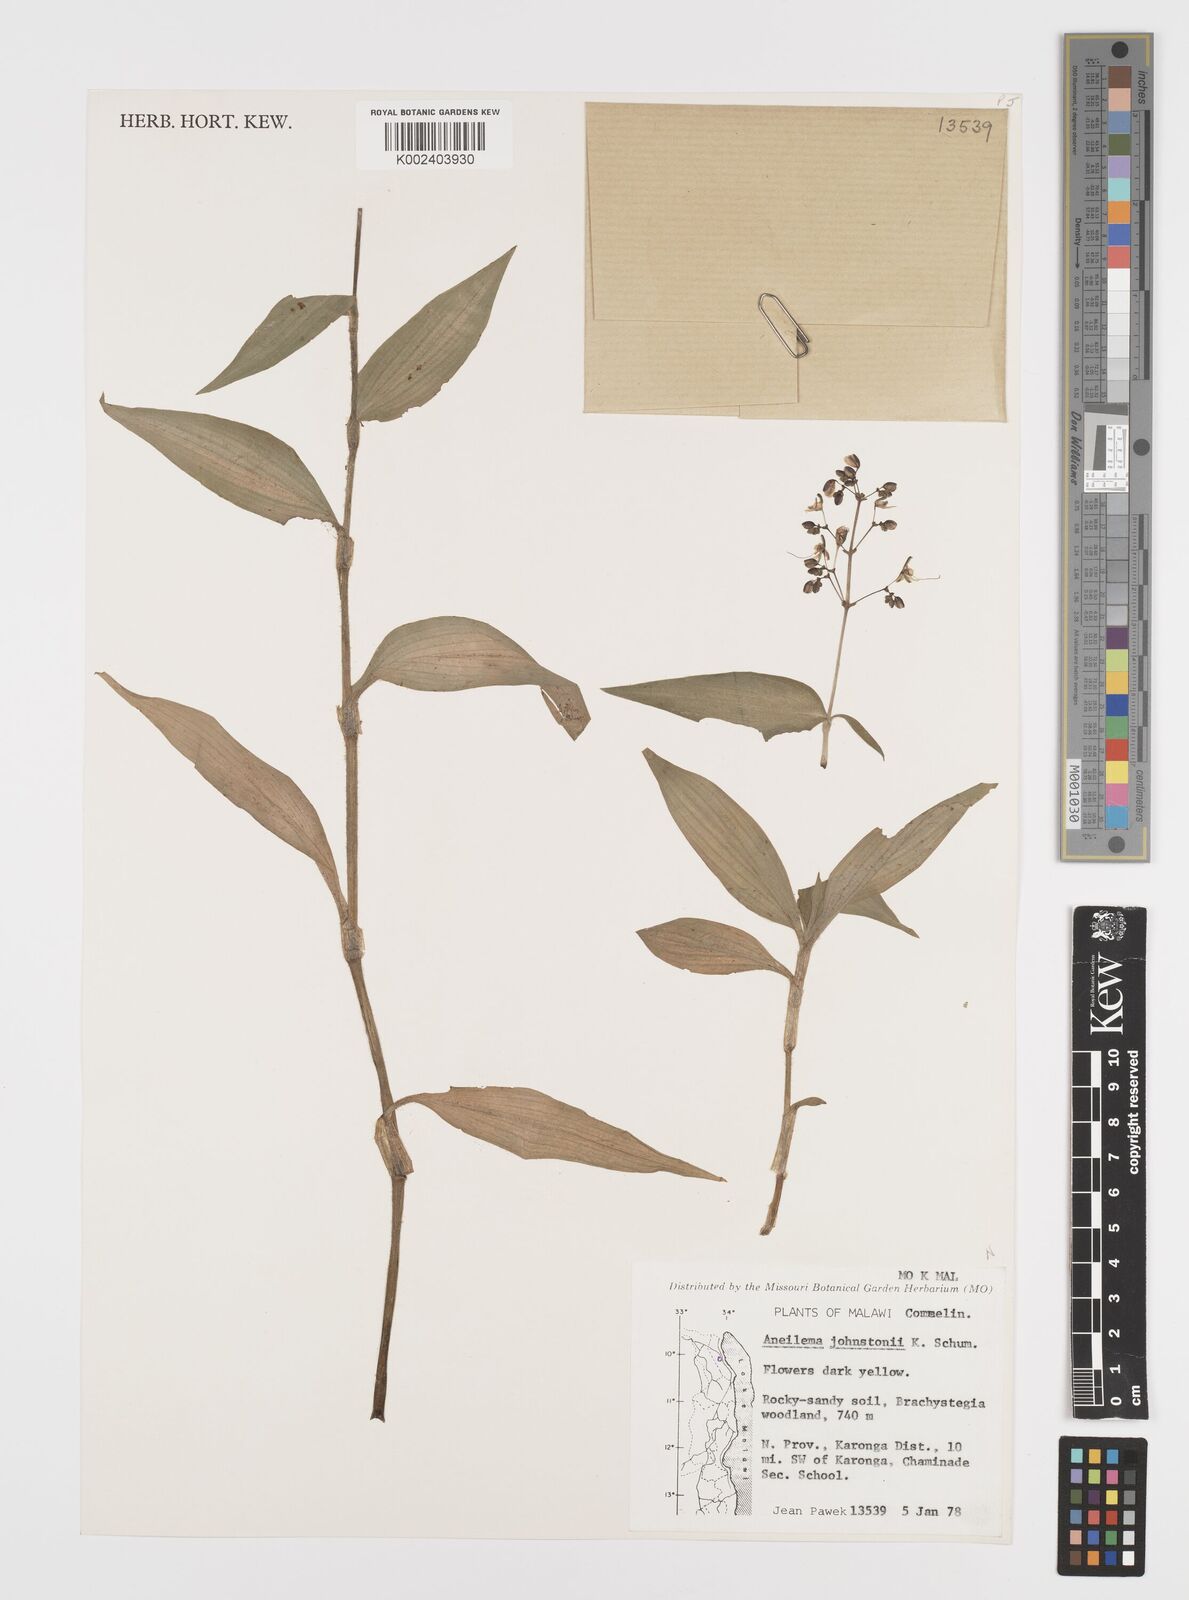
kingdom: Plantae
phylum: Tracheophyta
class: Liliopsida
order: Commelinales
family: Commelinaceae
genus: Aneilema
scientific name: Aneilema johnstonii
